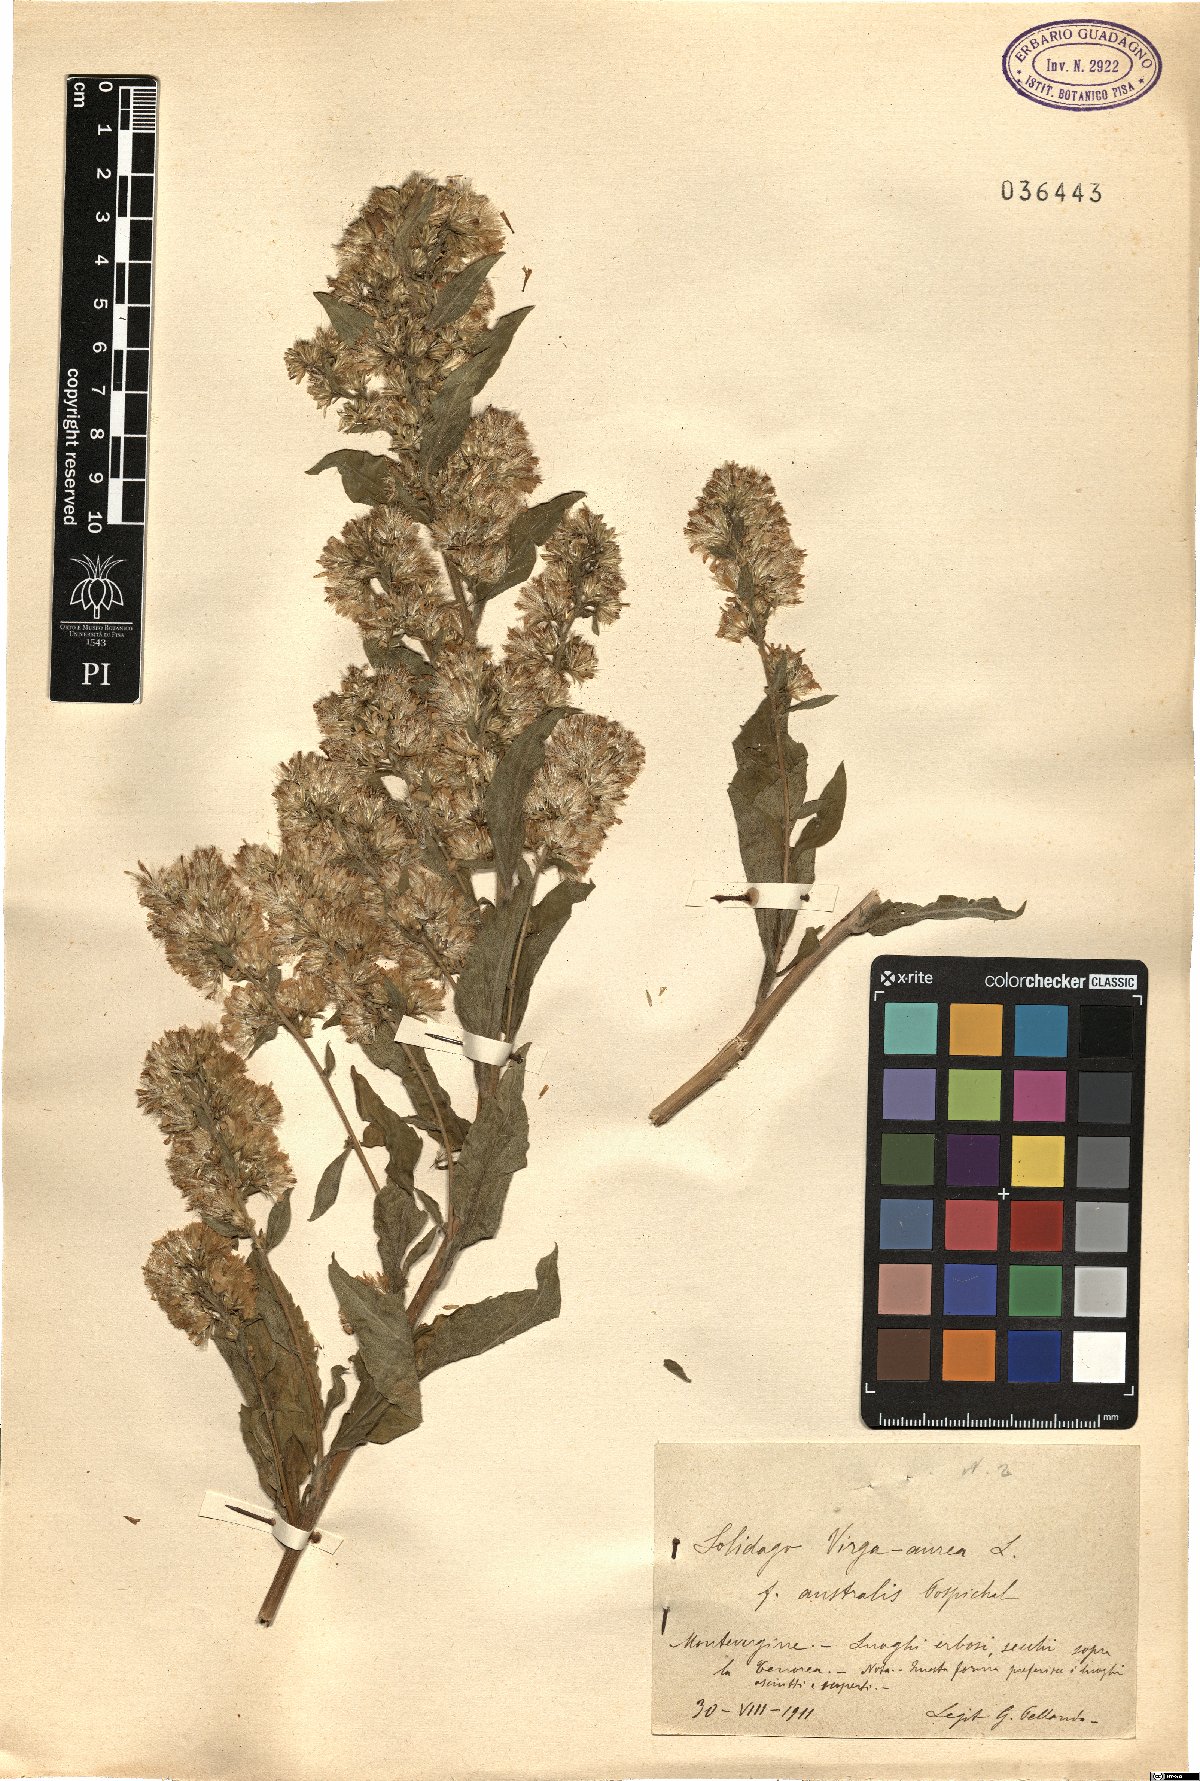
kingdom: Plantae
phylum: Tracheophyta
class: Magnoliopsida
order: Asterales
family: Asteraceae
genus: Solidago
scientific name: Solidago virgaurea
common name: Goldenrod
